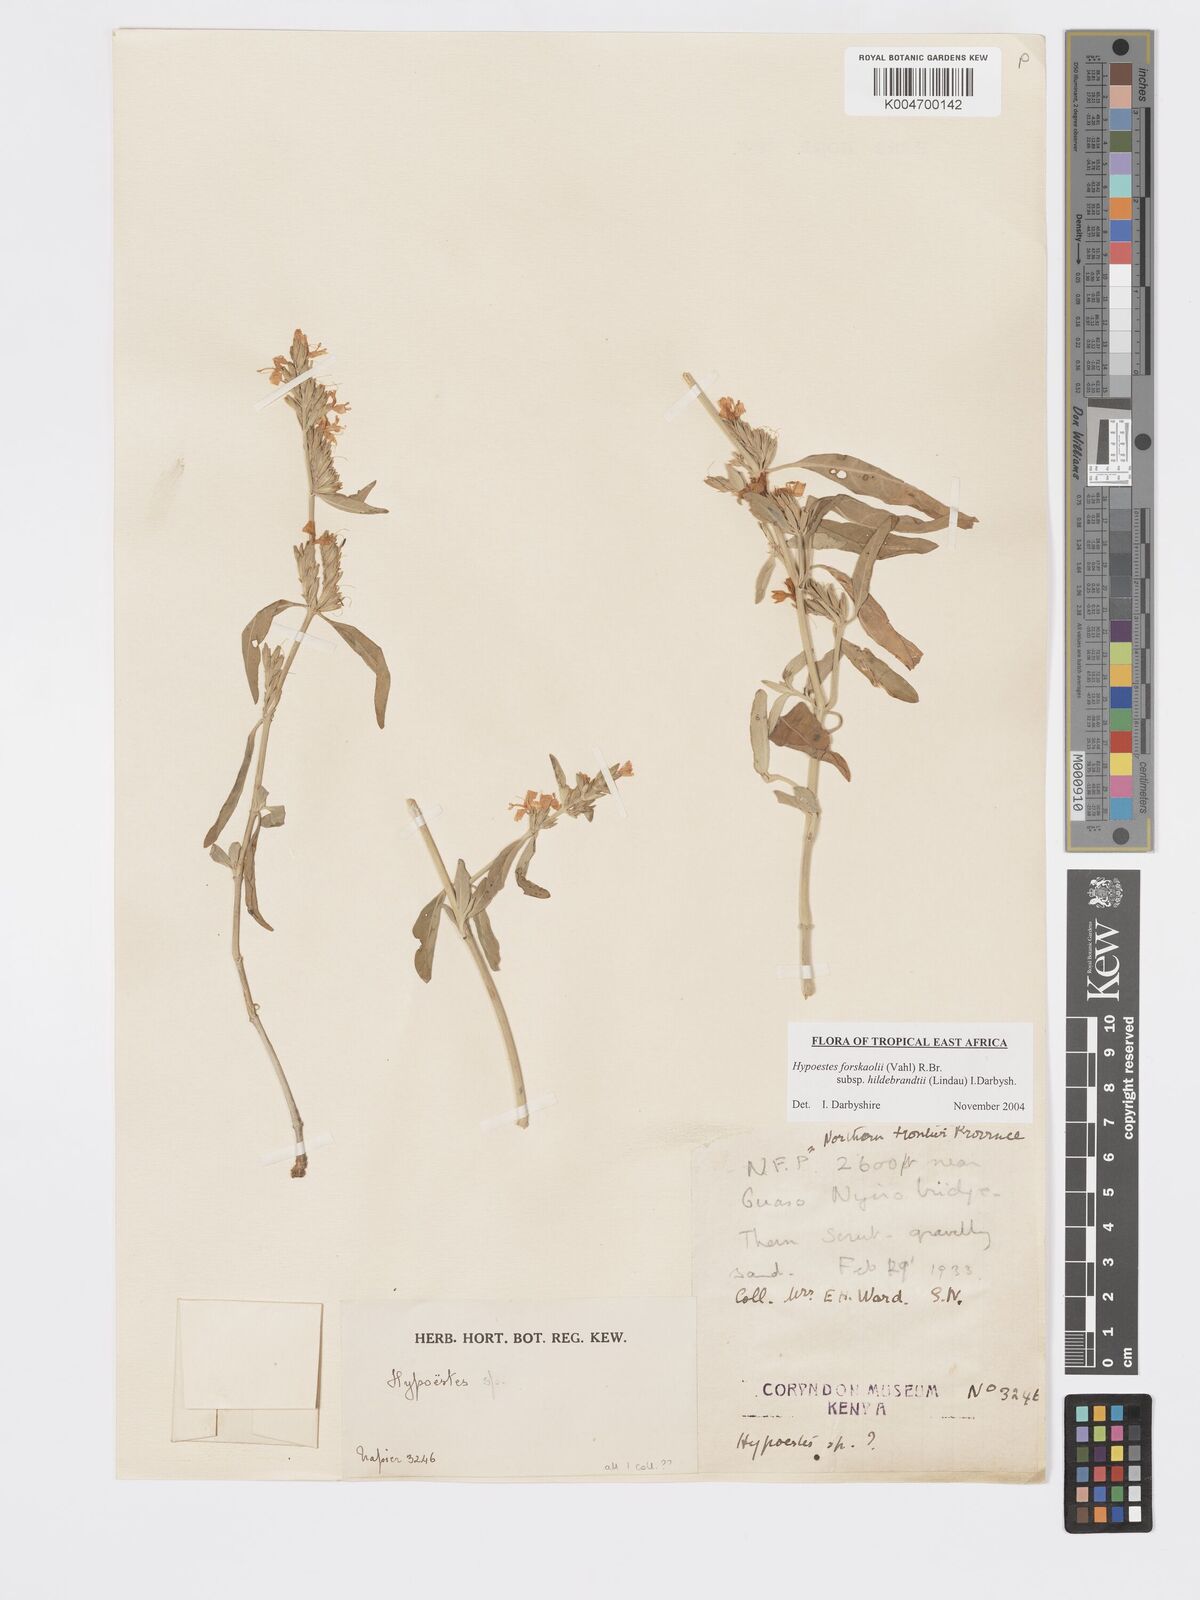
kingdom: Plantae
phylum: Tracheophyta
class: Magnoliopsida
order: Lamiales
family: Acanthaceae
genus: Hypoestes
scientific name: Hypoestes forskaolii
